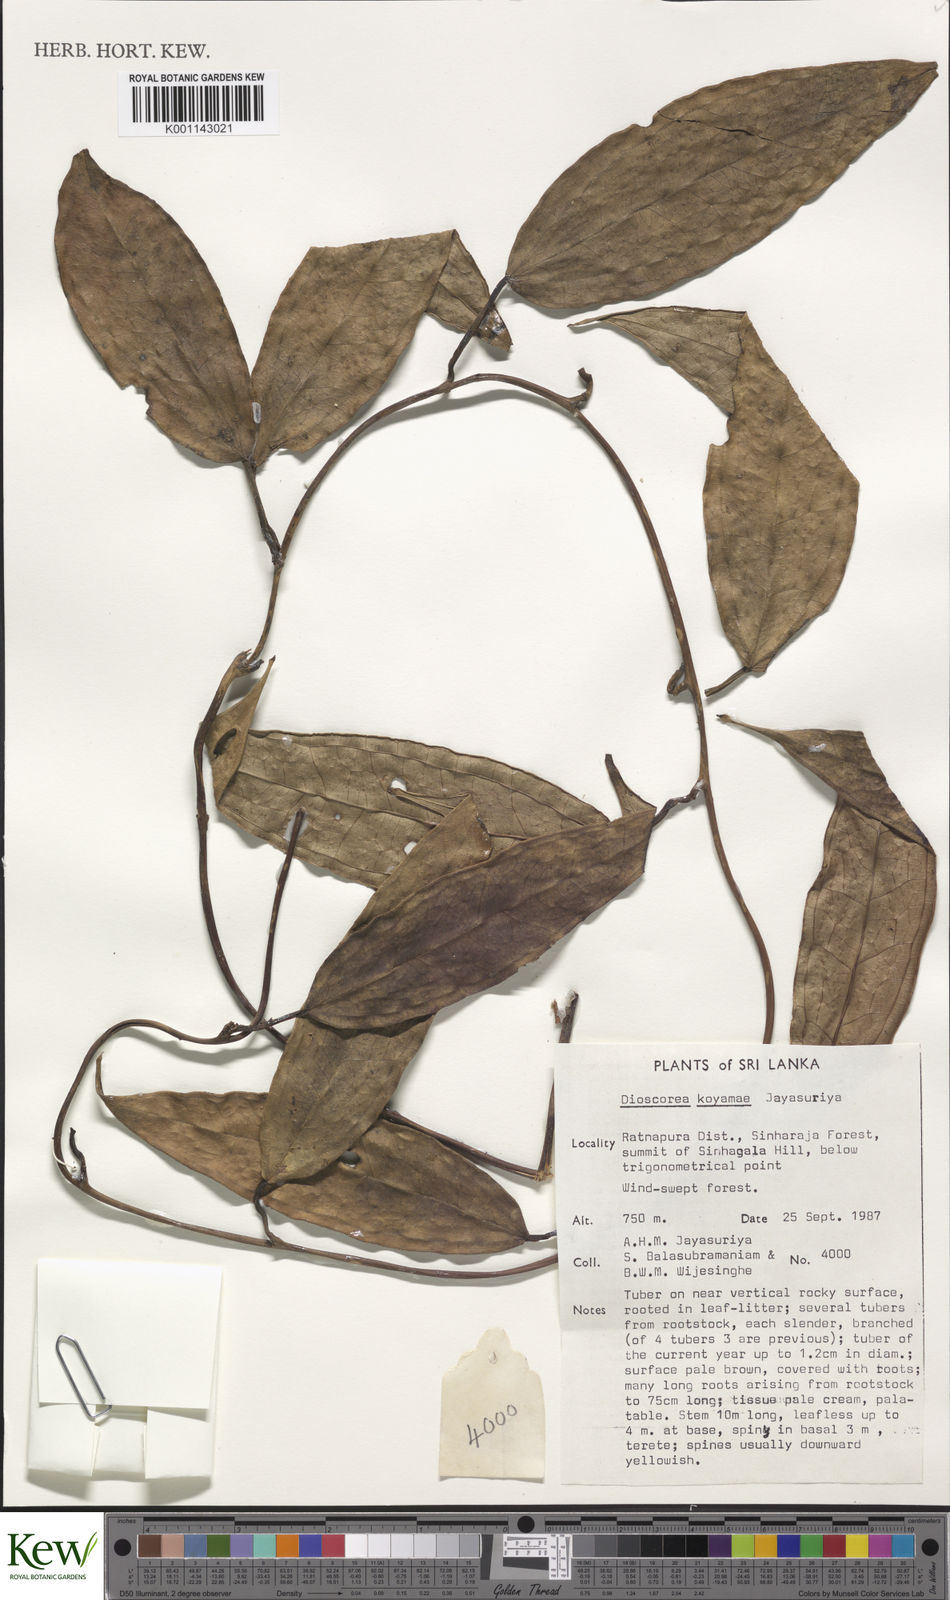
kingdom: Plantae
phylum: Tracheophyta
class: Liliopsida
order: Dioscoreales
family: Dioscoreaceae
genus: Dioscorea
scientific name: Dioscorea koyamae
